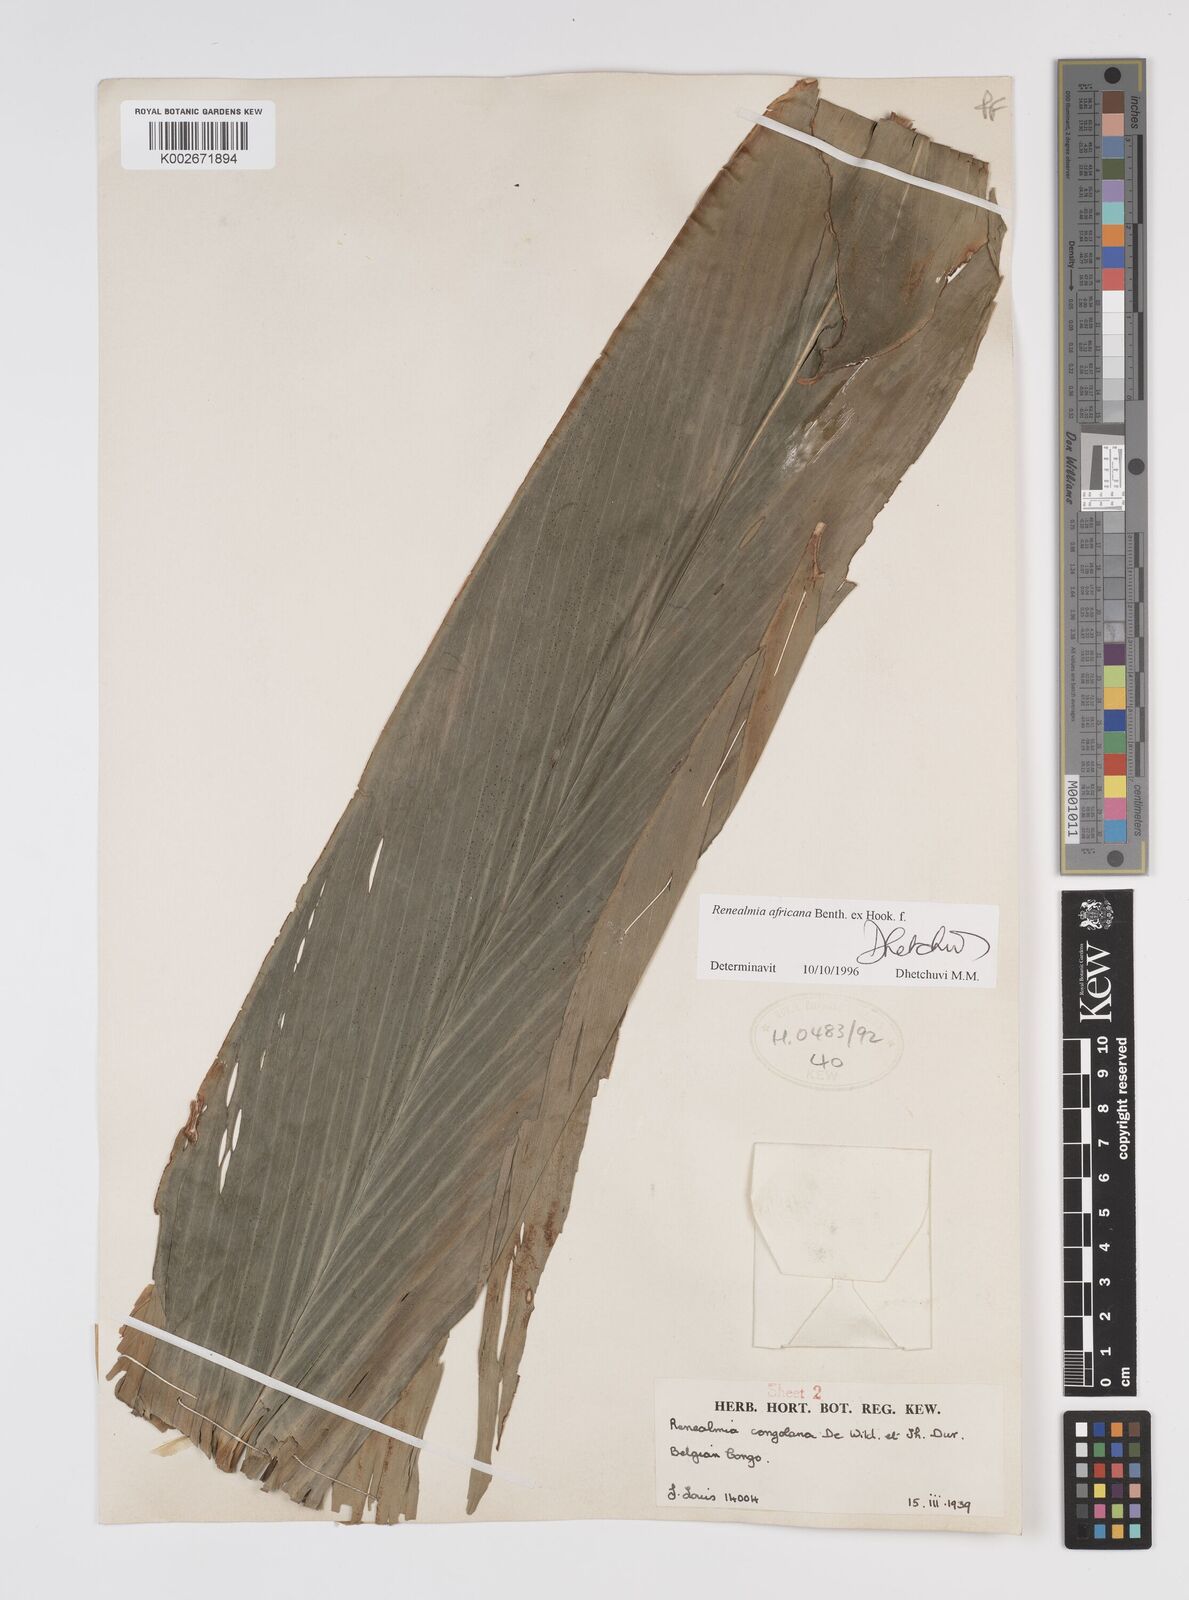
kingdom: Plantae
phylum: Tracheophyta
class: Liliopsida
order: Zingiberales
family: Zingiberaceae
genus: Renealmia
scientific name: Renealmia africana
